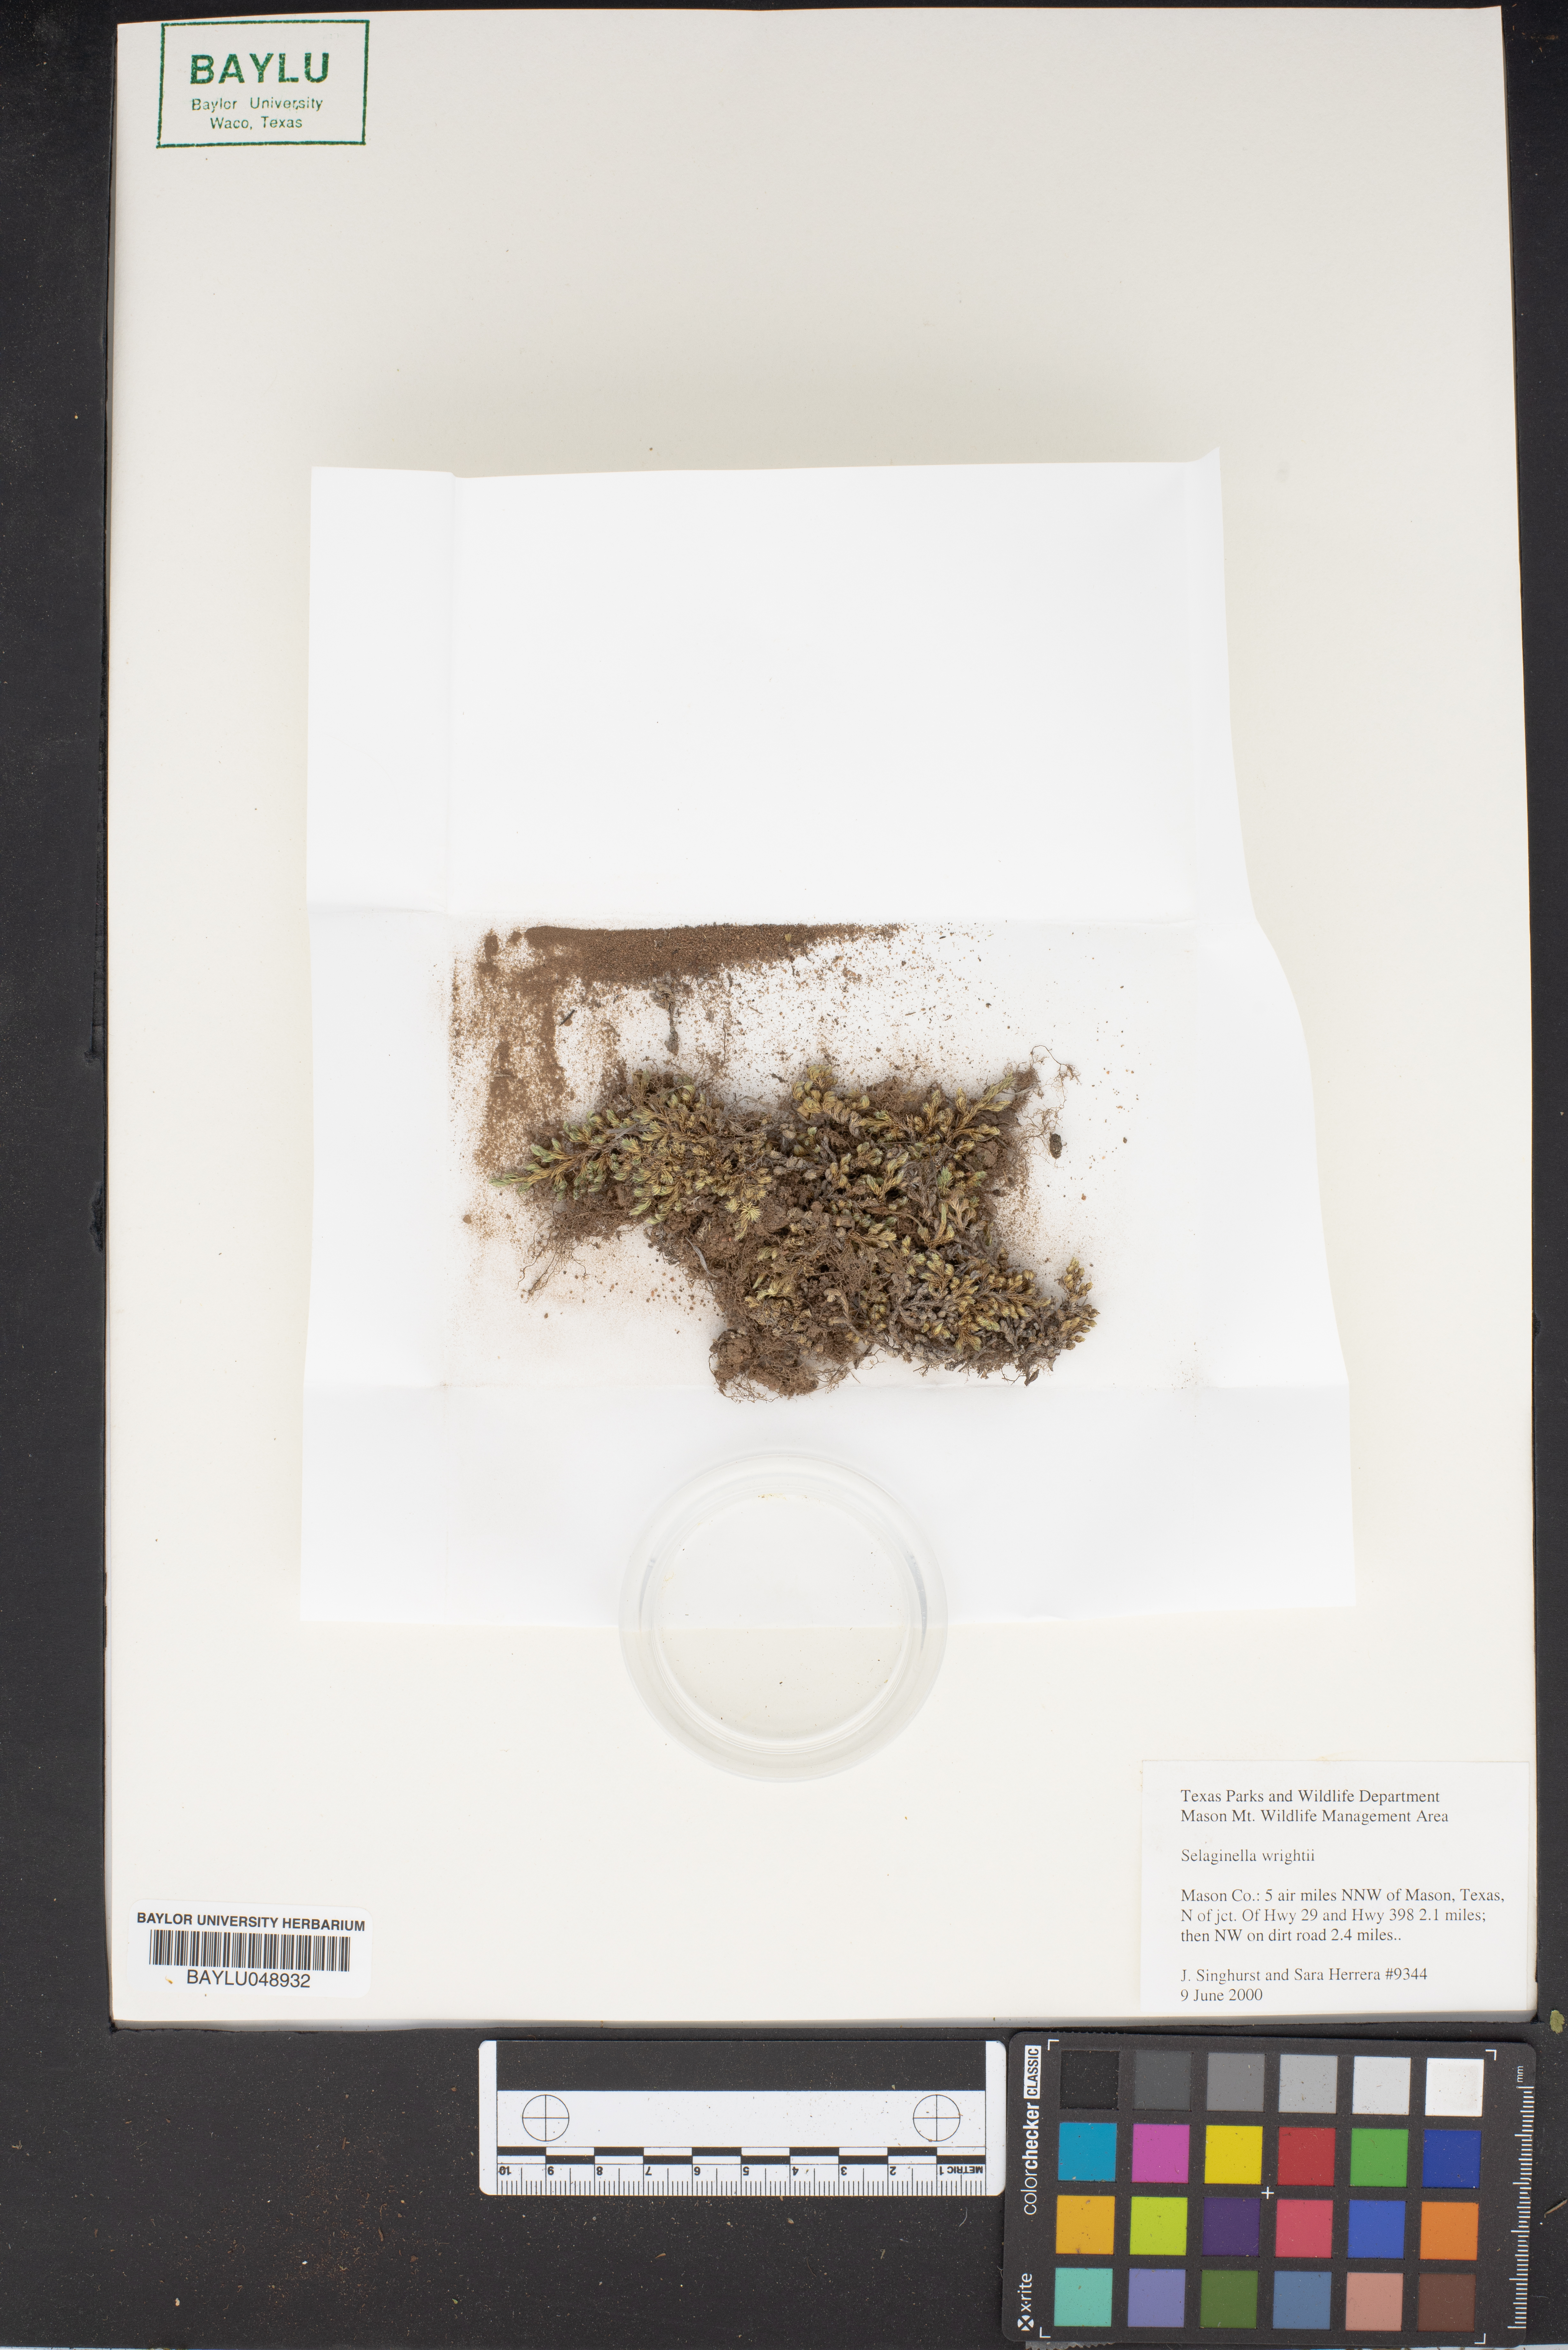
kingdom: Plantae
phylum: Tracheophyta
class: Lycopodiopsida
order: Selaginellales
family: Selaginellaceae
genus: Selaginella
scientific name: Selaginella wrightii
